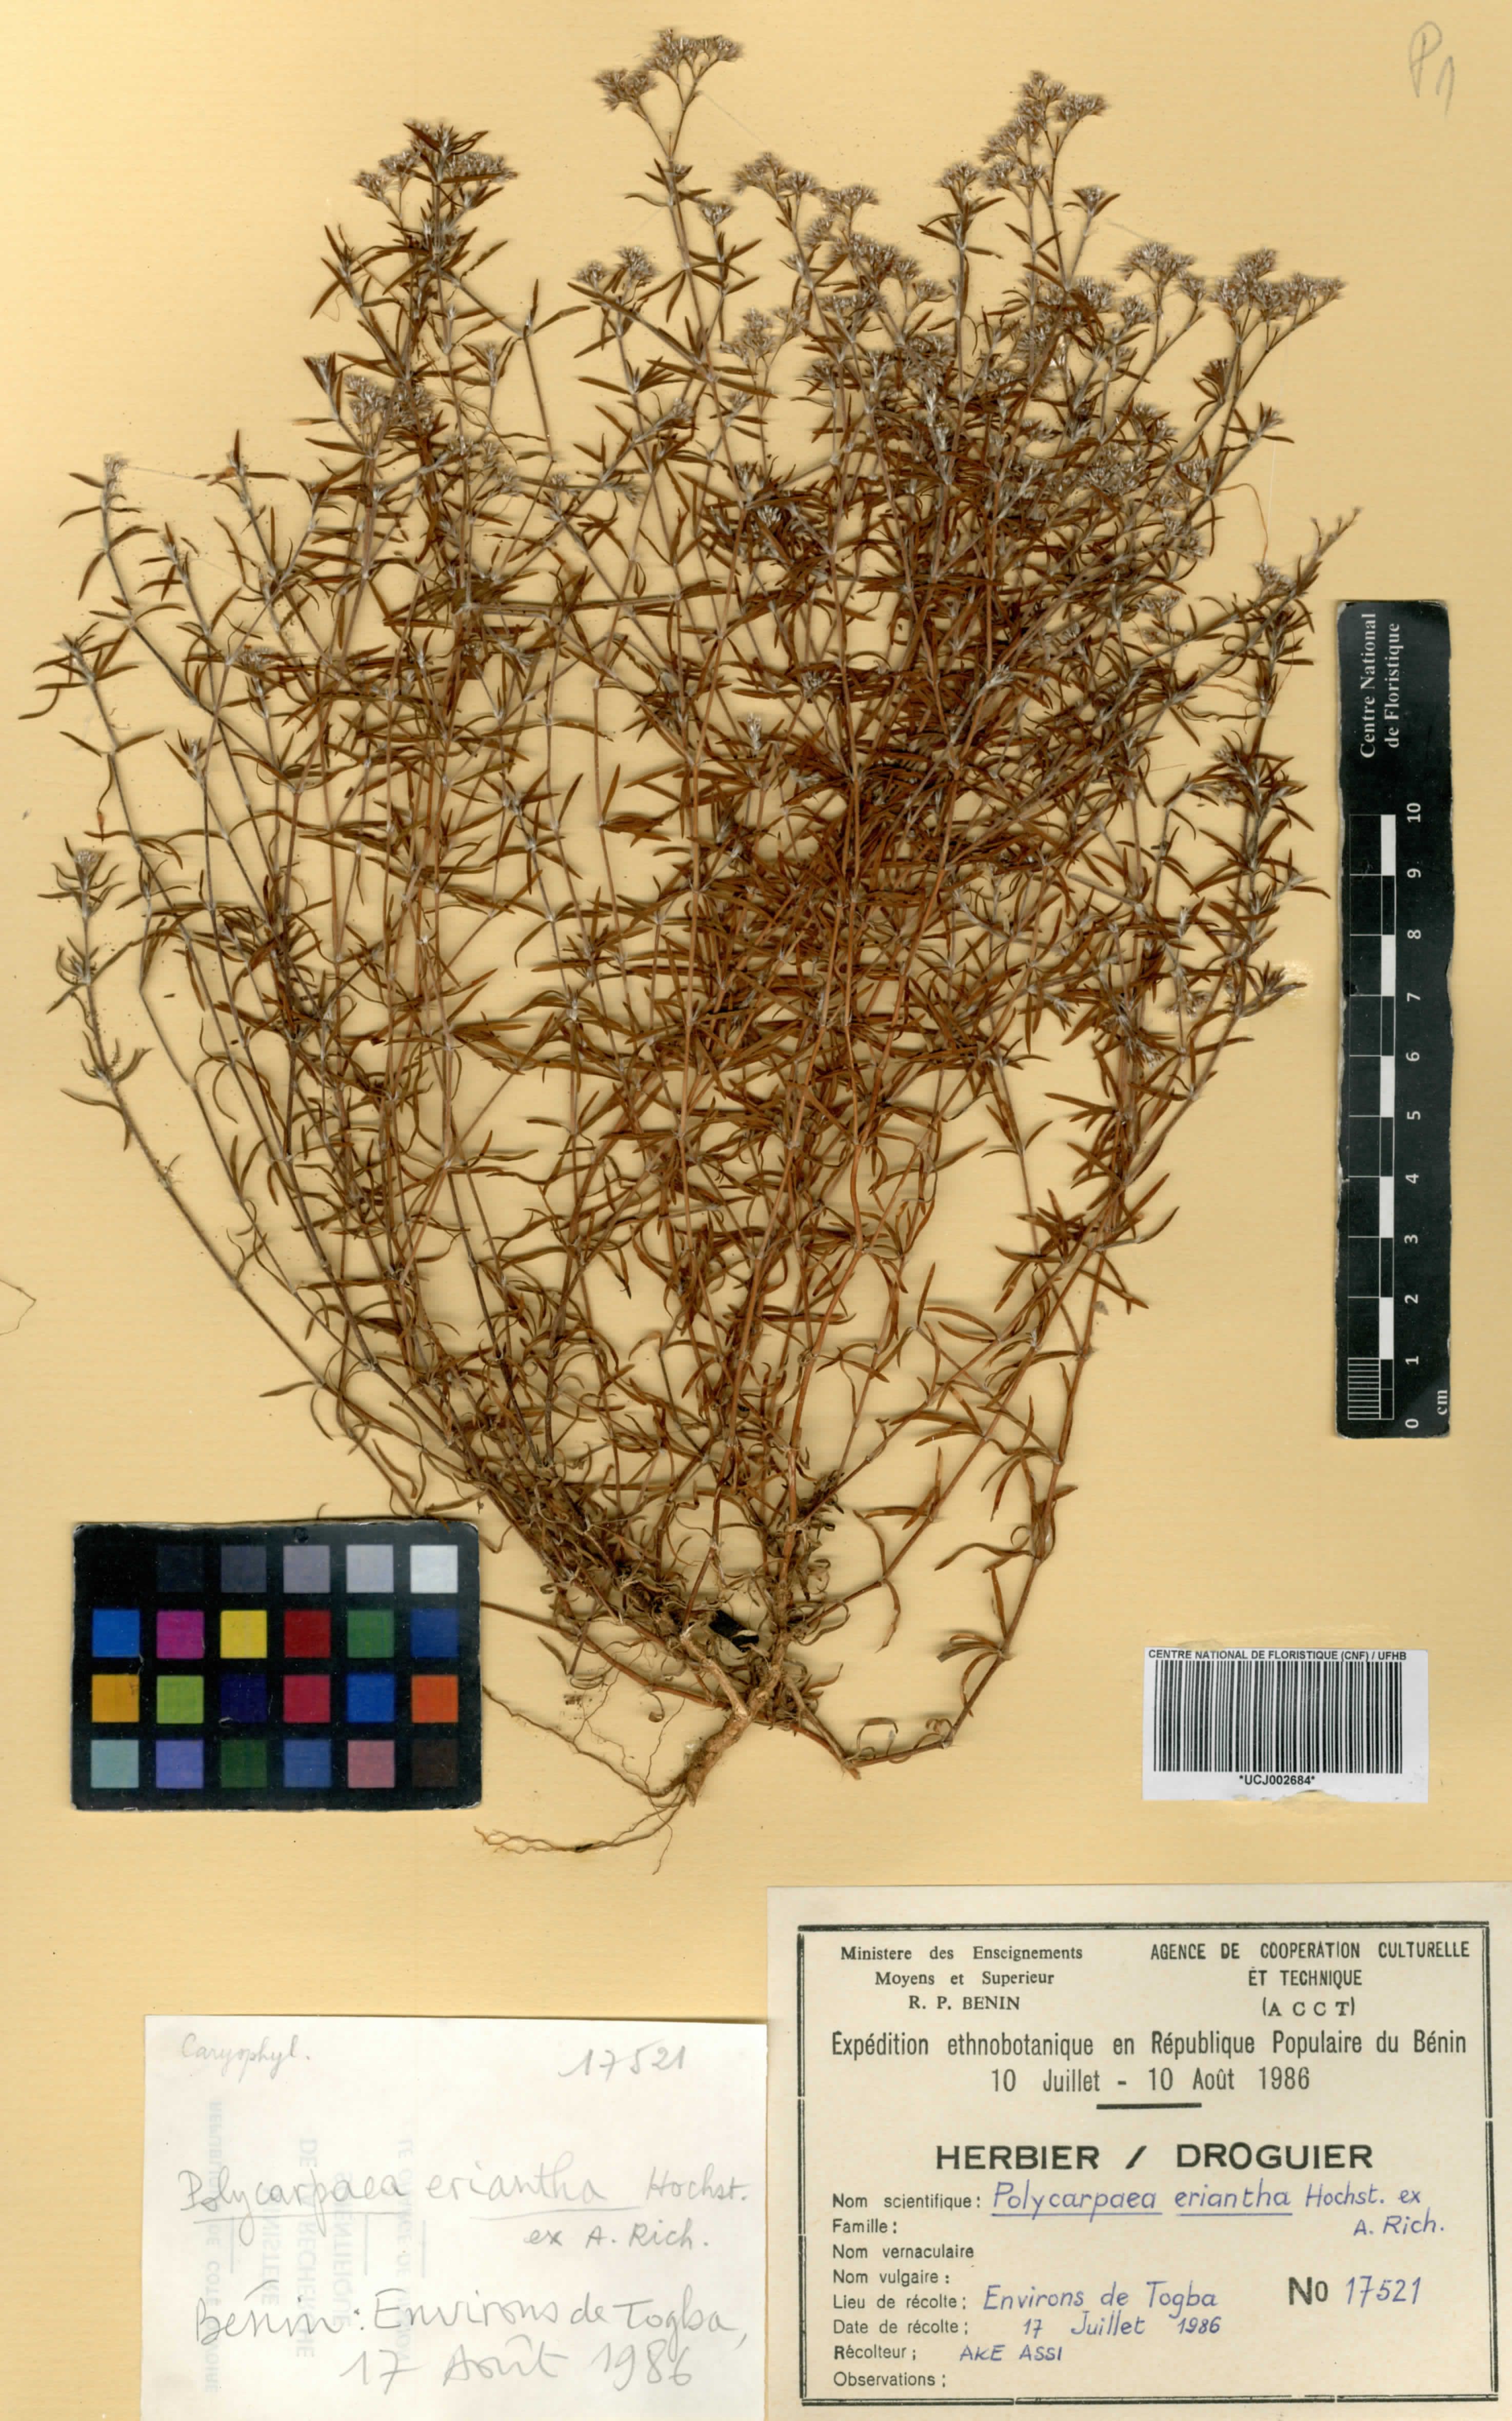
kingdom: Plantae
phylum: Tracheophyta
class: Magnoliopsida
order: Caryophyllales
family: Caryophyllaceae
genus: Polycarpaea
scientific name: Polycarpaea eriantha
